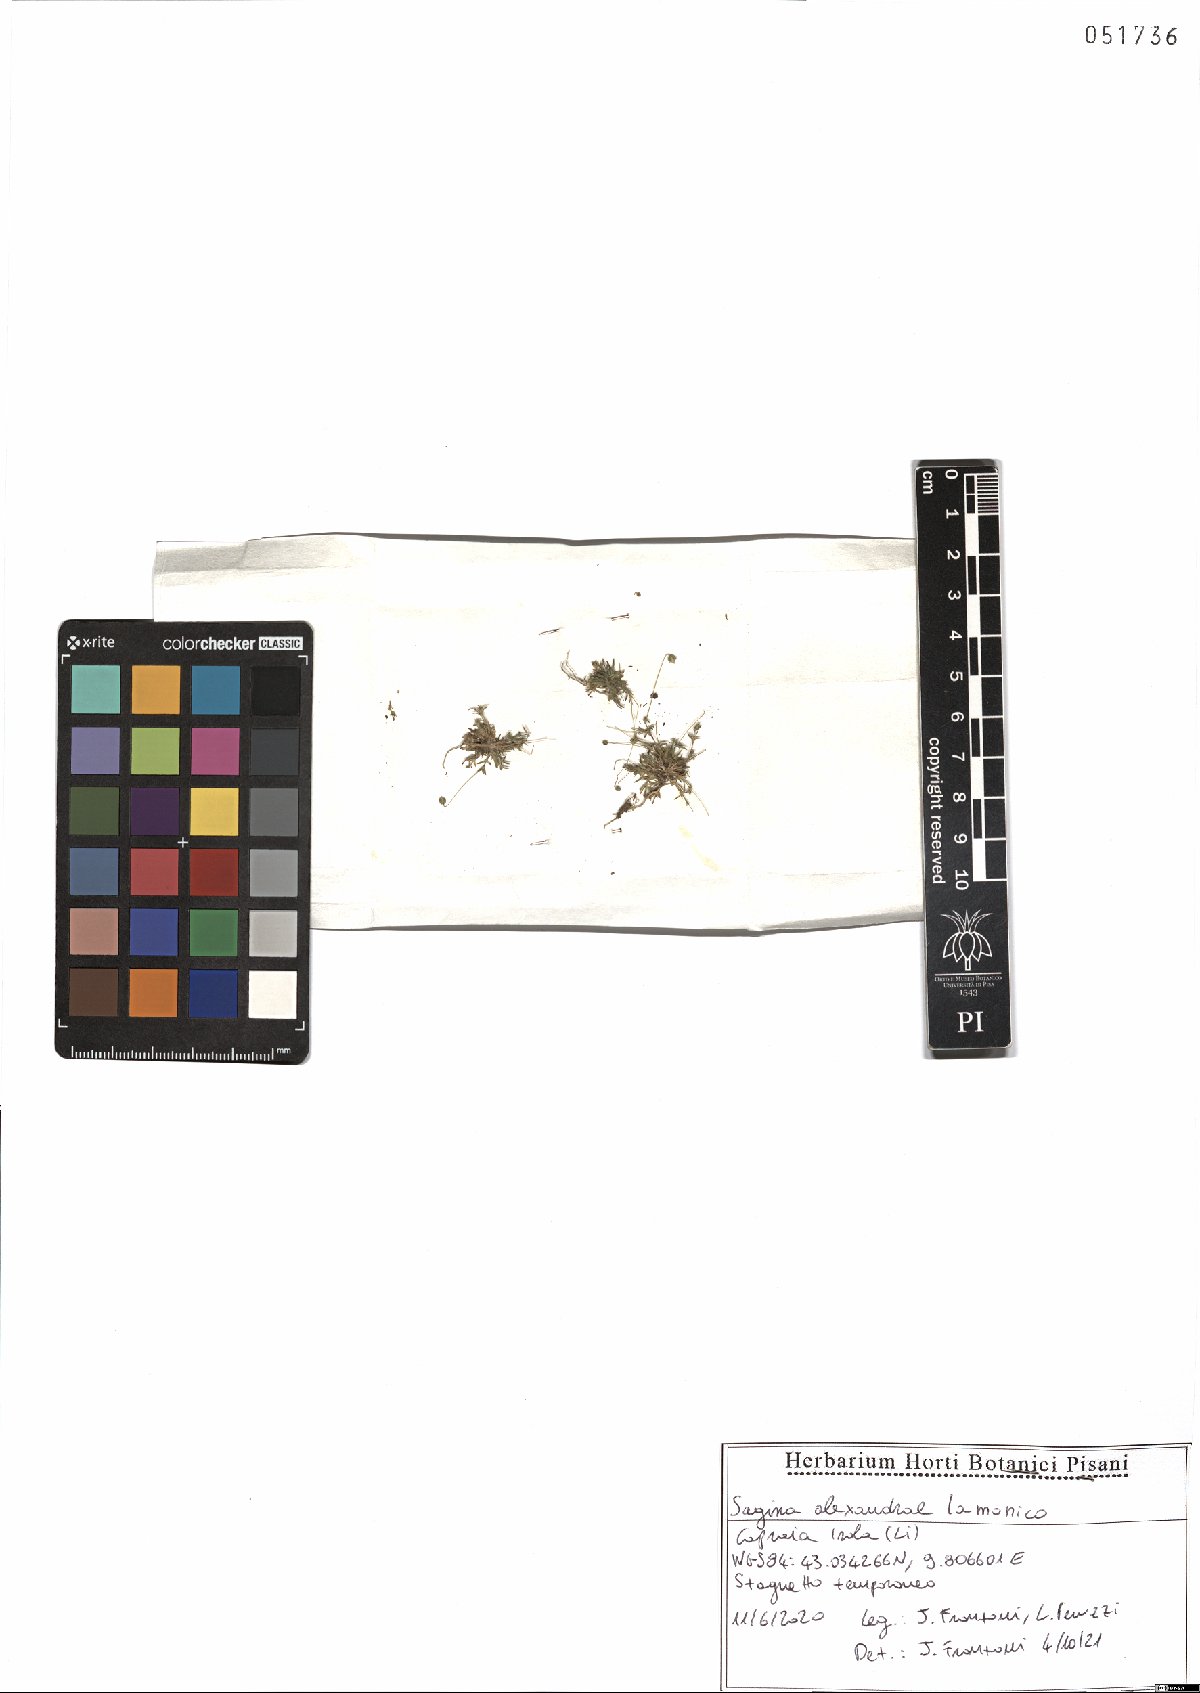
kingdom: Plantae
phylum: Tracheophyta
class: Magnoliopsida
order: Caryophyllales
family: Caryophyllaceae
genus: Sagina
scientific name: Sagina alexandrae
